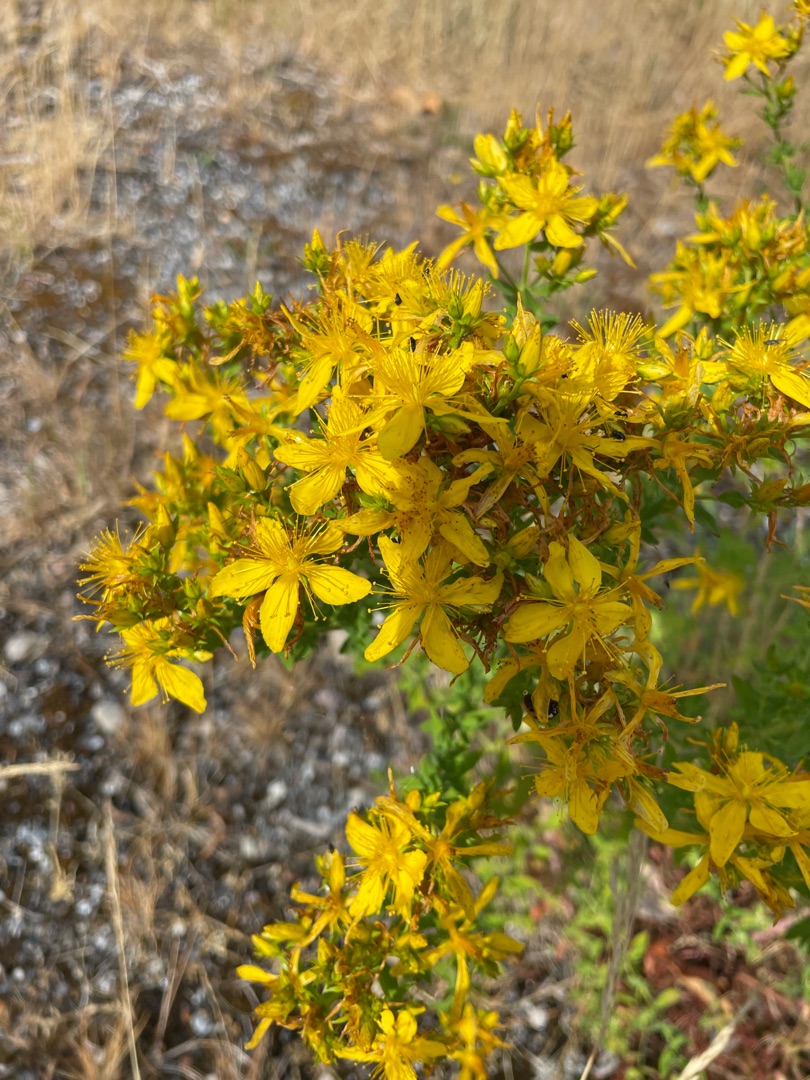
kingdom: Plantae
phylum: Tracheophyta
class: Magnoliopsida
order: Malpighiales
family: Hypericaceae
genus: Hypericum
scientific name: Hypericum perforatum
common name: Prikbladet perikon
